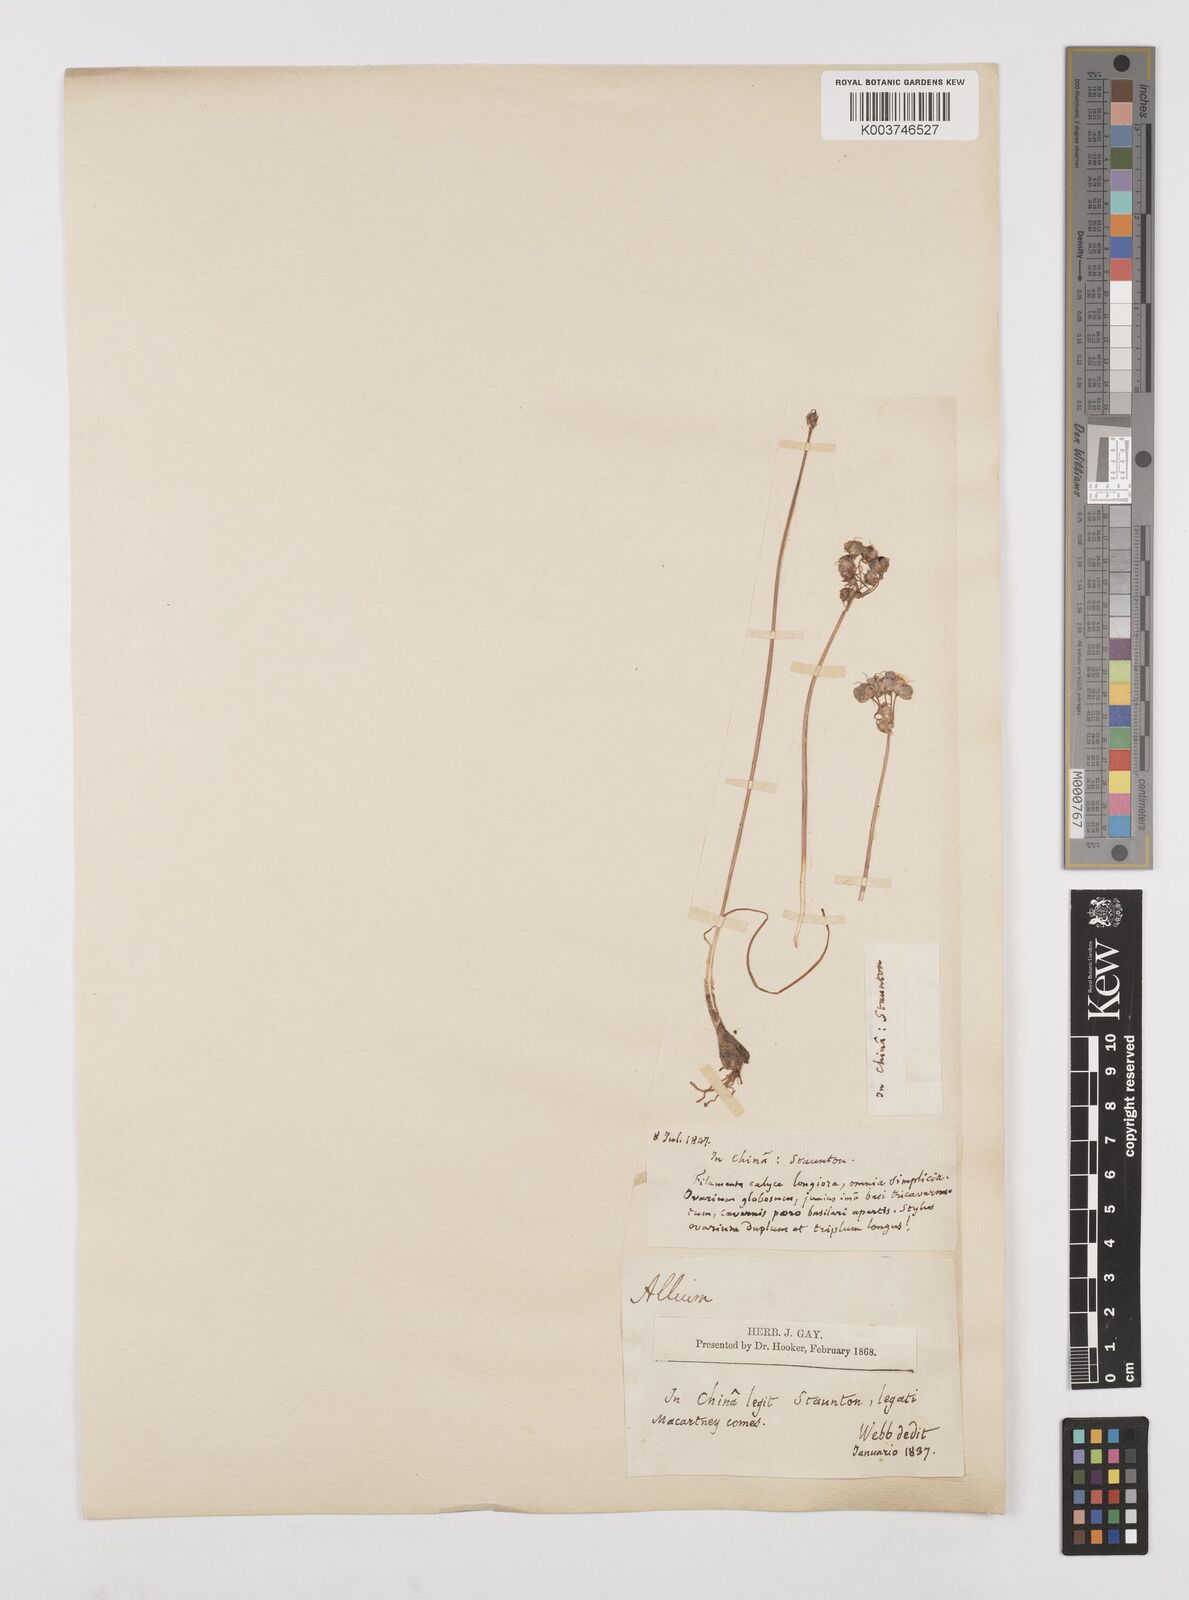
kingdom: Plantae
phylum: Tracheophyta
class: Liliopsida
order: Asparagales
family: Amaryllidaceae
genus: Allium
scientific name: Allium chinense
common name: Japanese scallion
